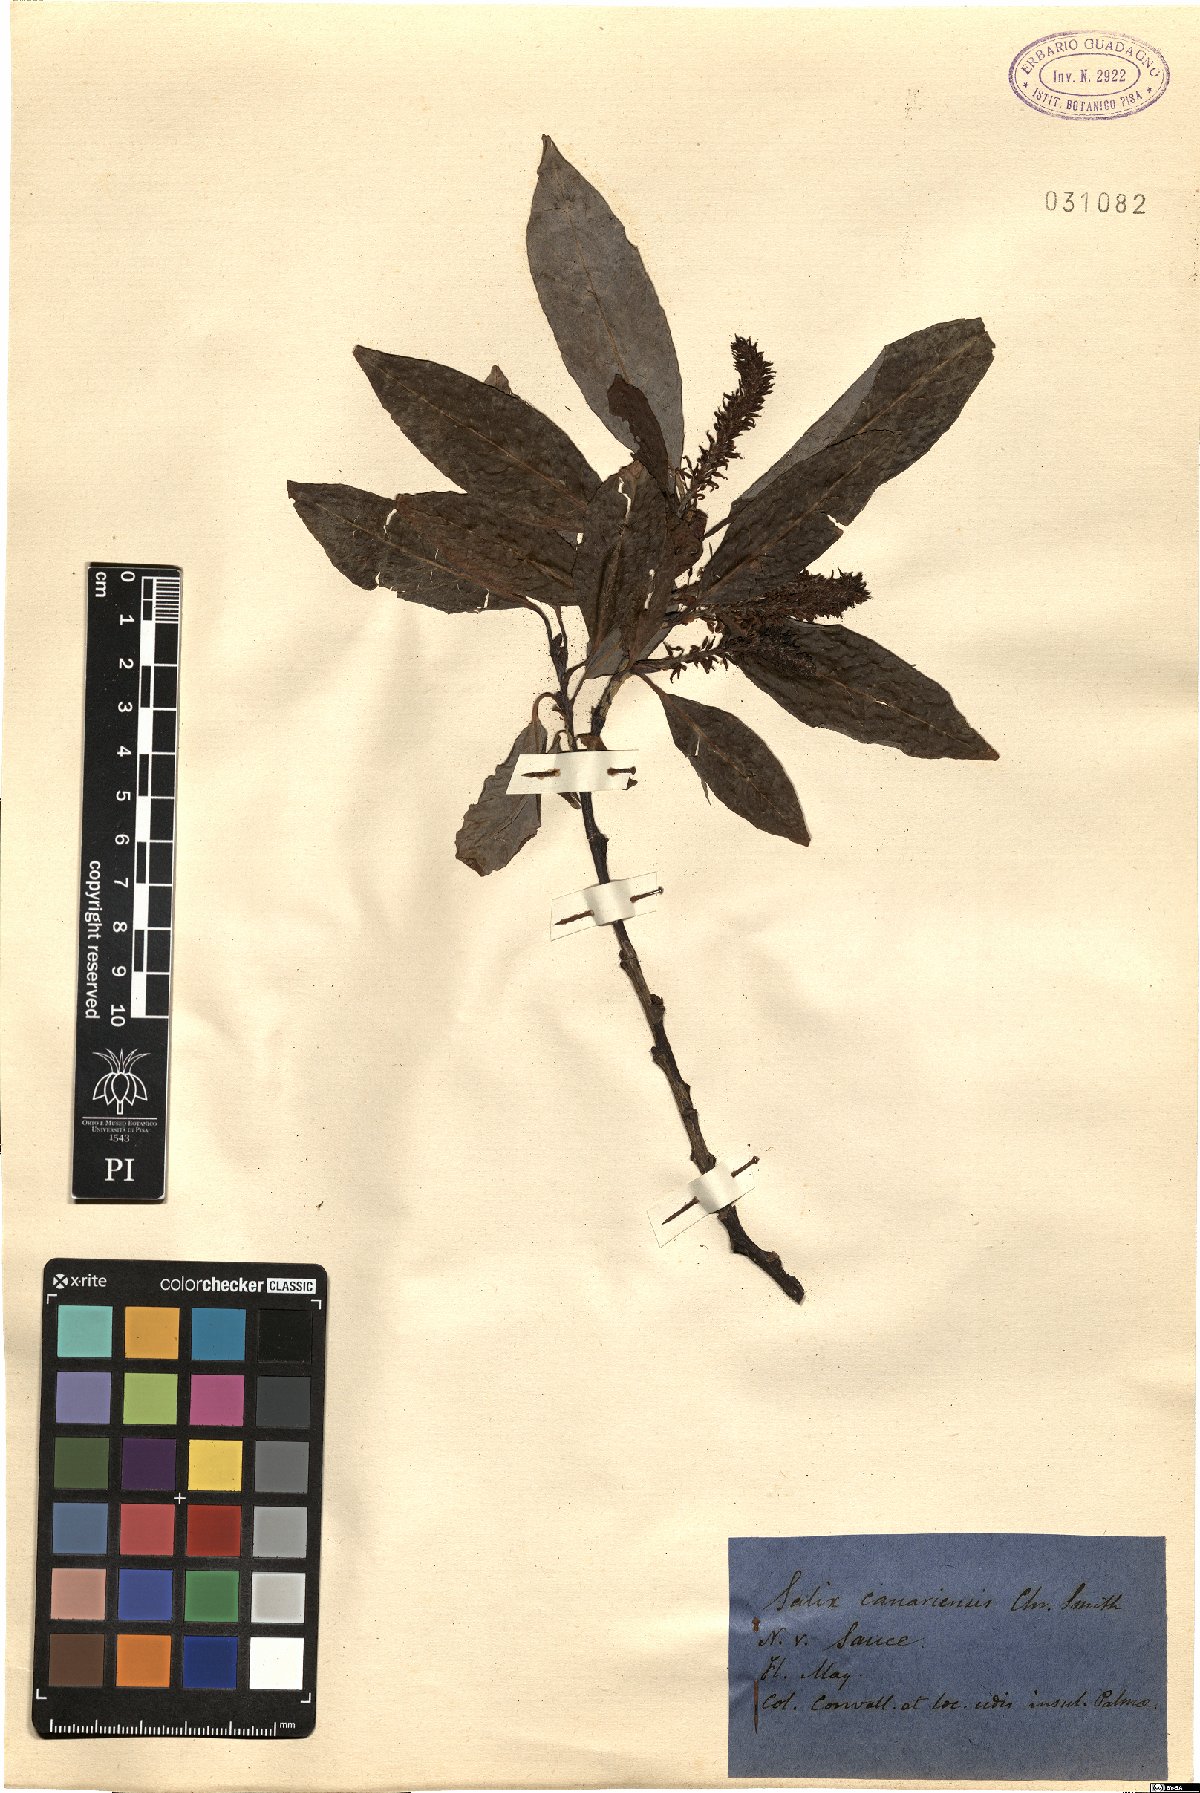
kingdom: Plantae
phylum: Tracheophyta
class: Magnoliopsida
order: Malpighiales
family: Salicaceae
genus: Salix
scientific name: Salix canariensis
